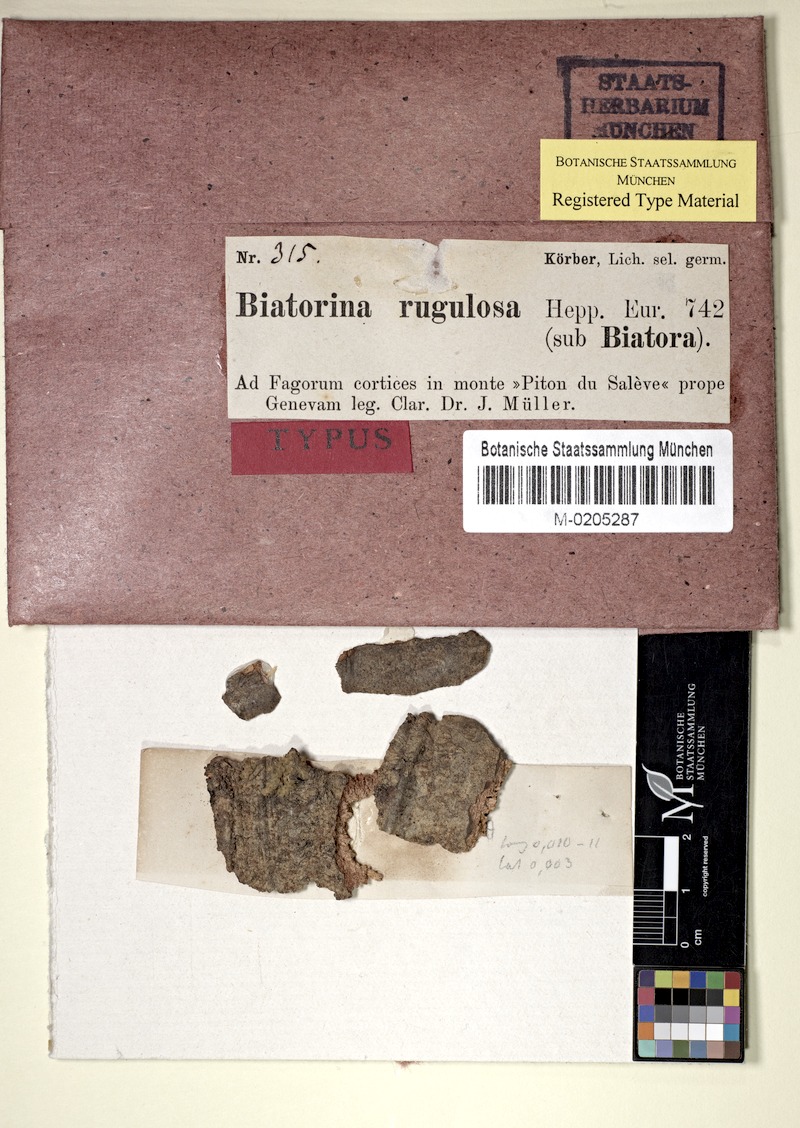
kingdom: Fungi
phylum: Ascomycota
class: Lecanoromycetes
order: Lecanorales
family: Catillariaceae
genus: Catillaria
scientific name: Catillaria rugulosa
